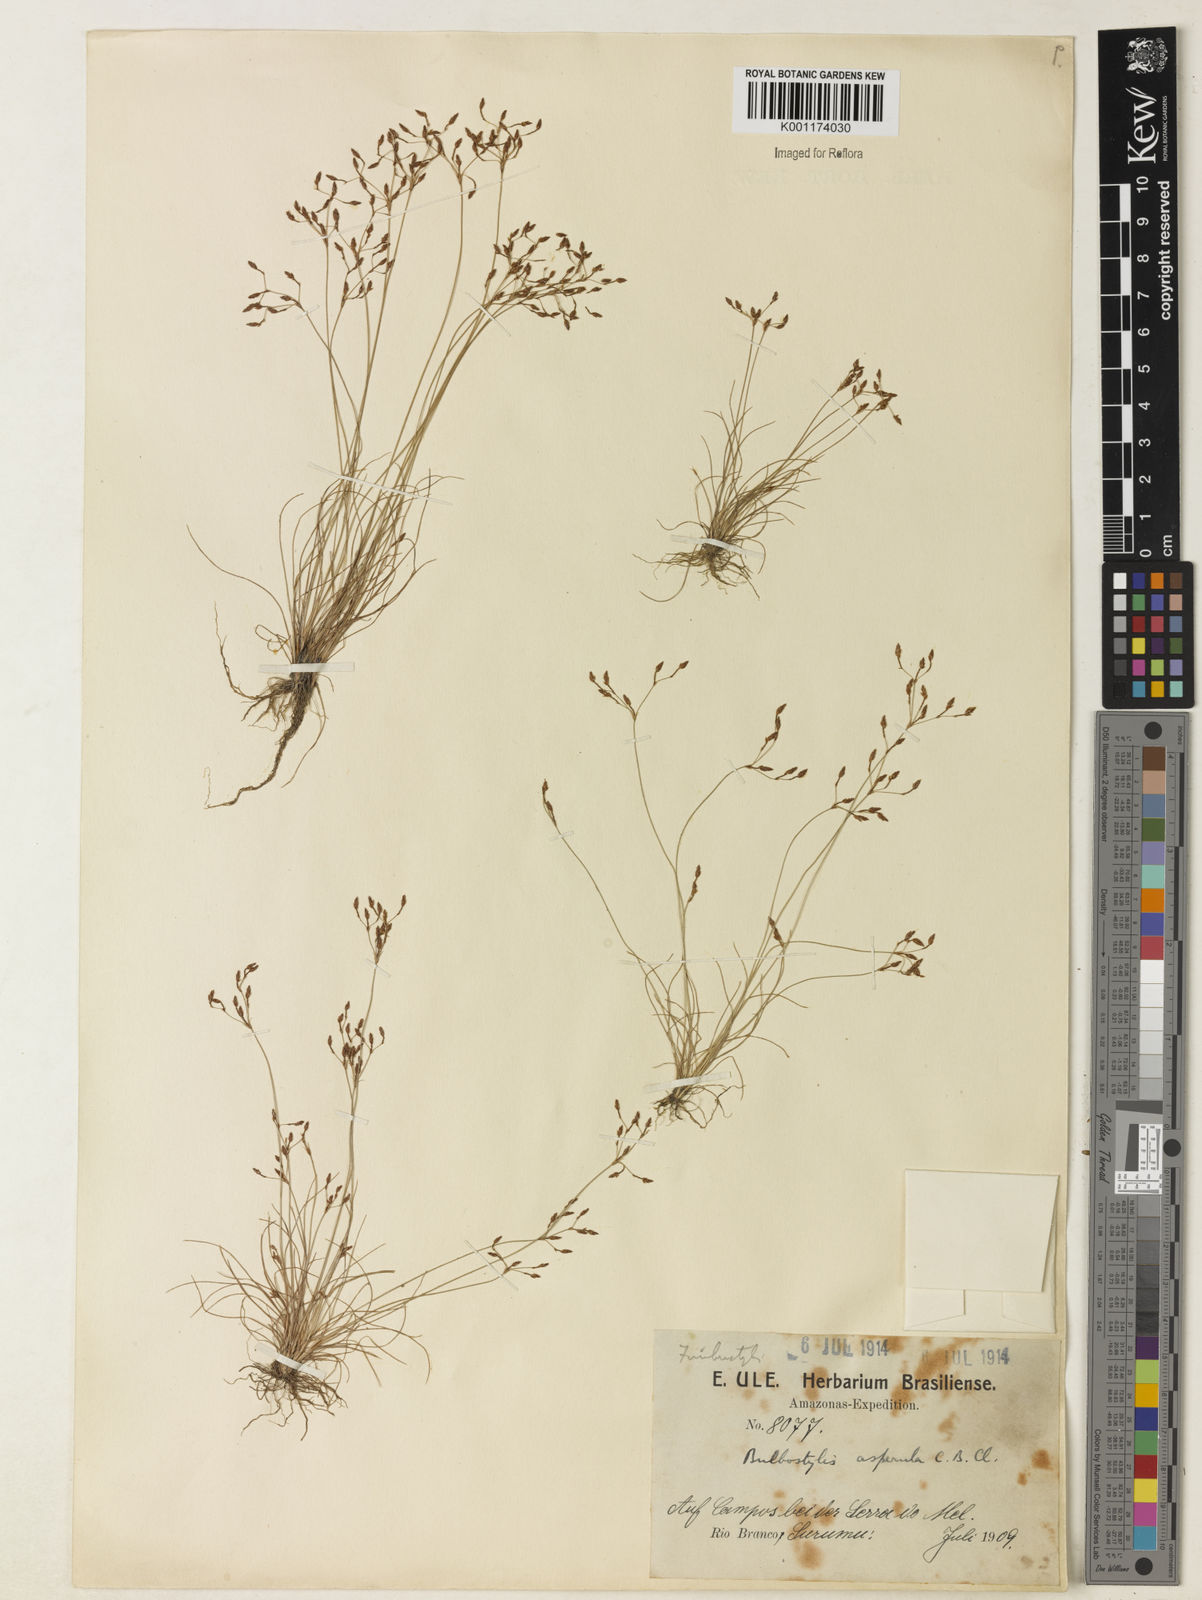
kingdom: Plantae
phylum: Tracheophyta
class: Liliopsida
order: Poales
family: Cyperaceae
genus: Bulbostylis
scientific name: Bulbostylis asperula
